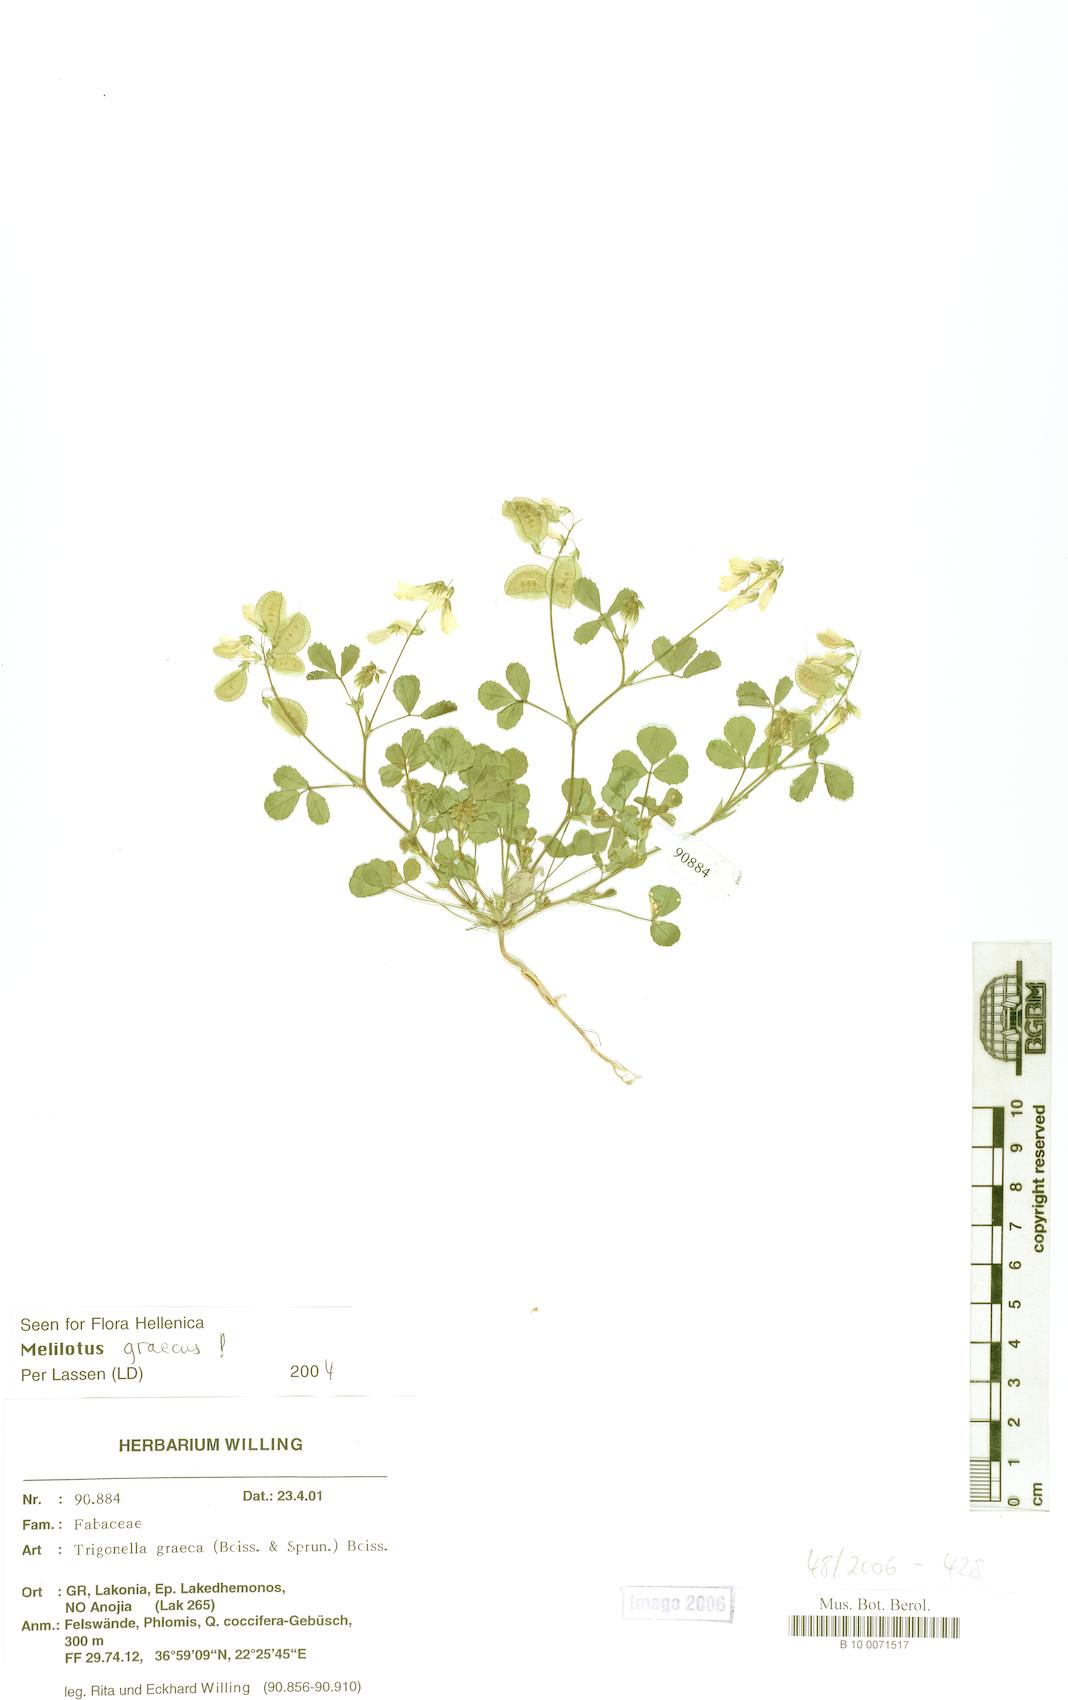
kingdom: Plantae
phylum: Tracheophyta
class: Magnoliopsida
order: Fabales
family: Fabaceae
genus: Trigonella
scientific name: Trigonella graeca
